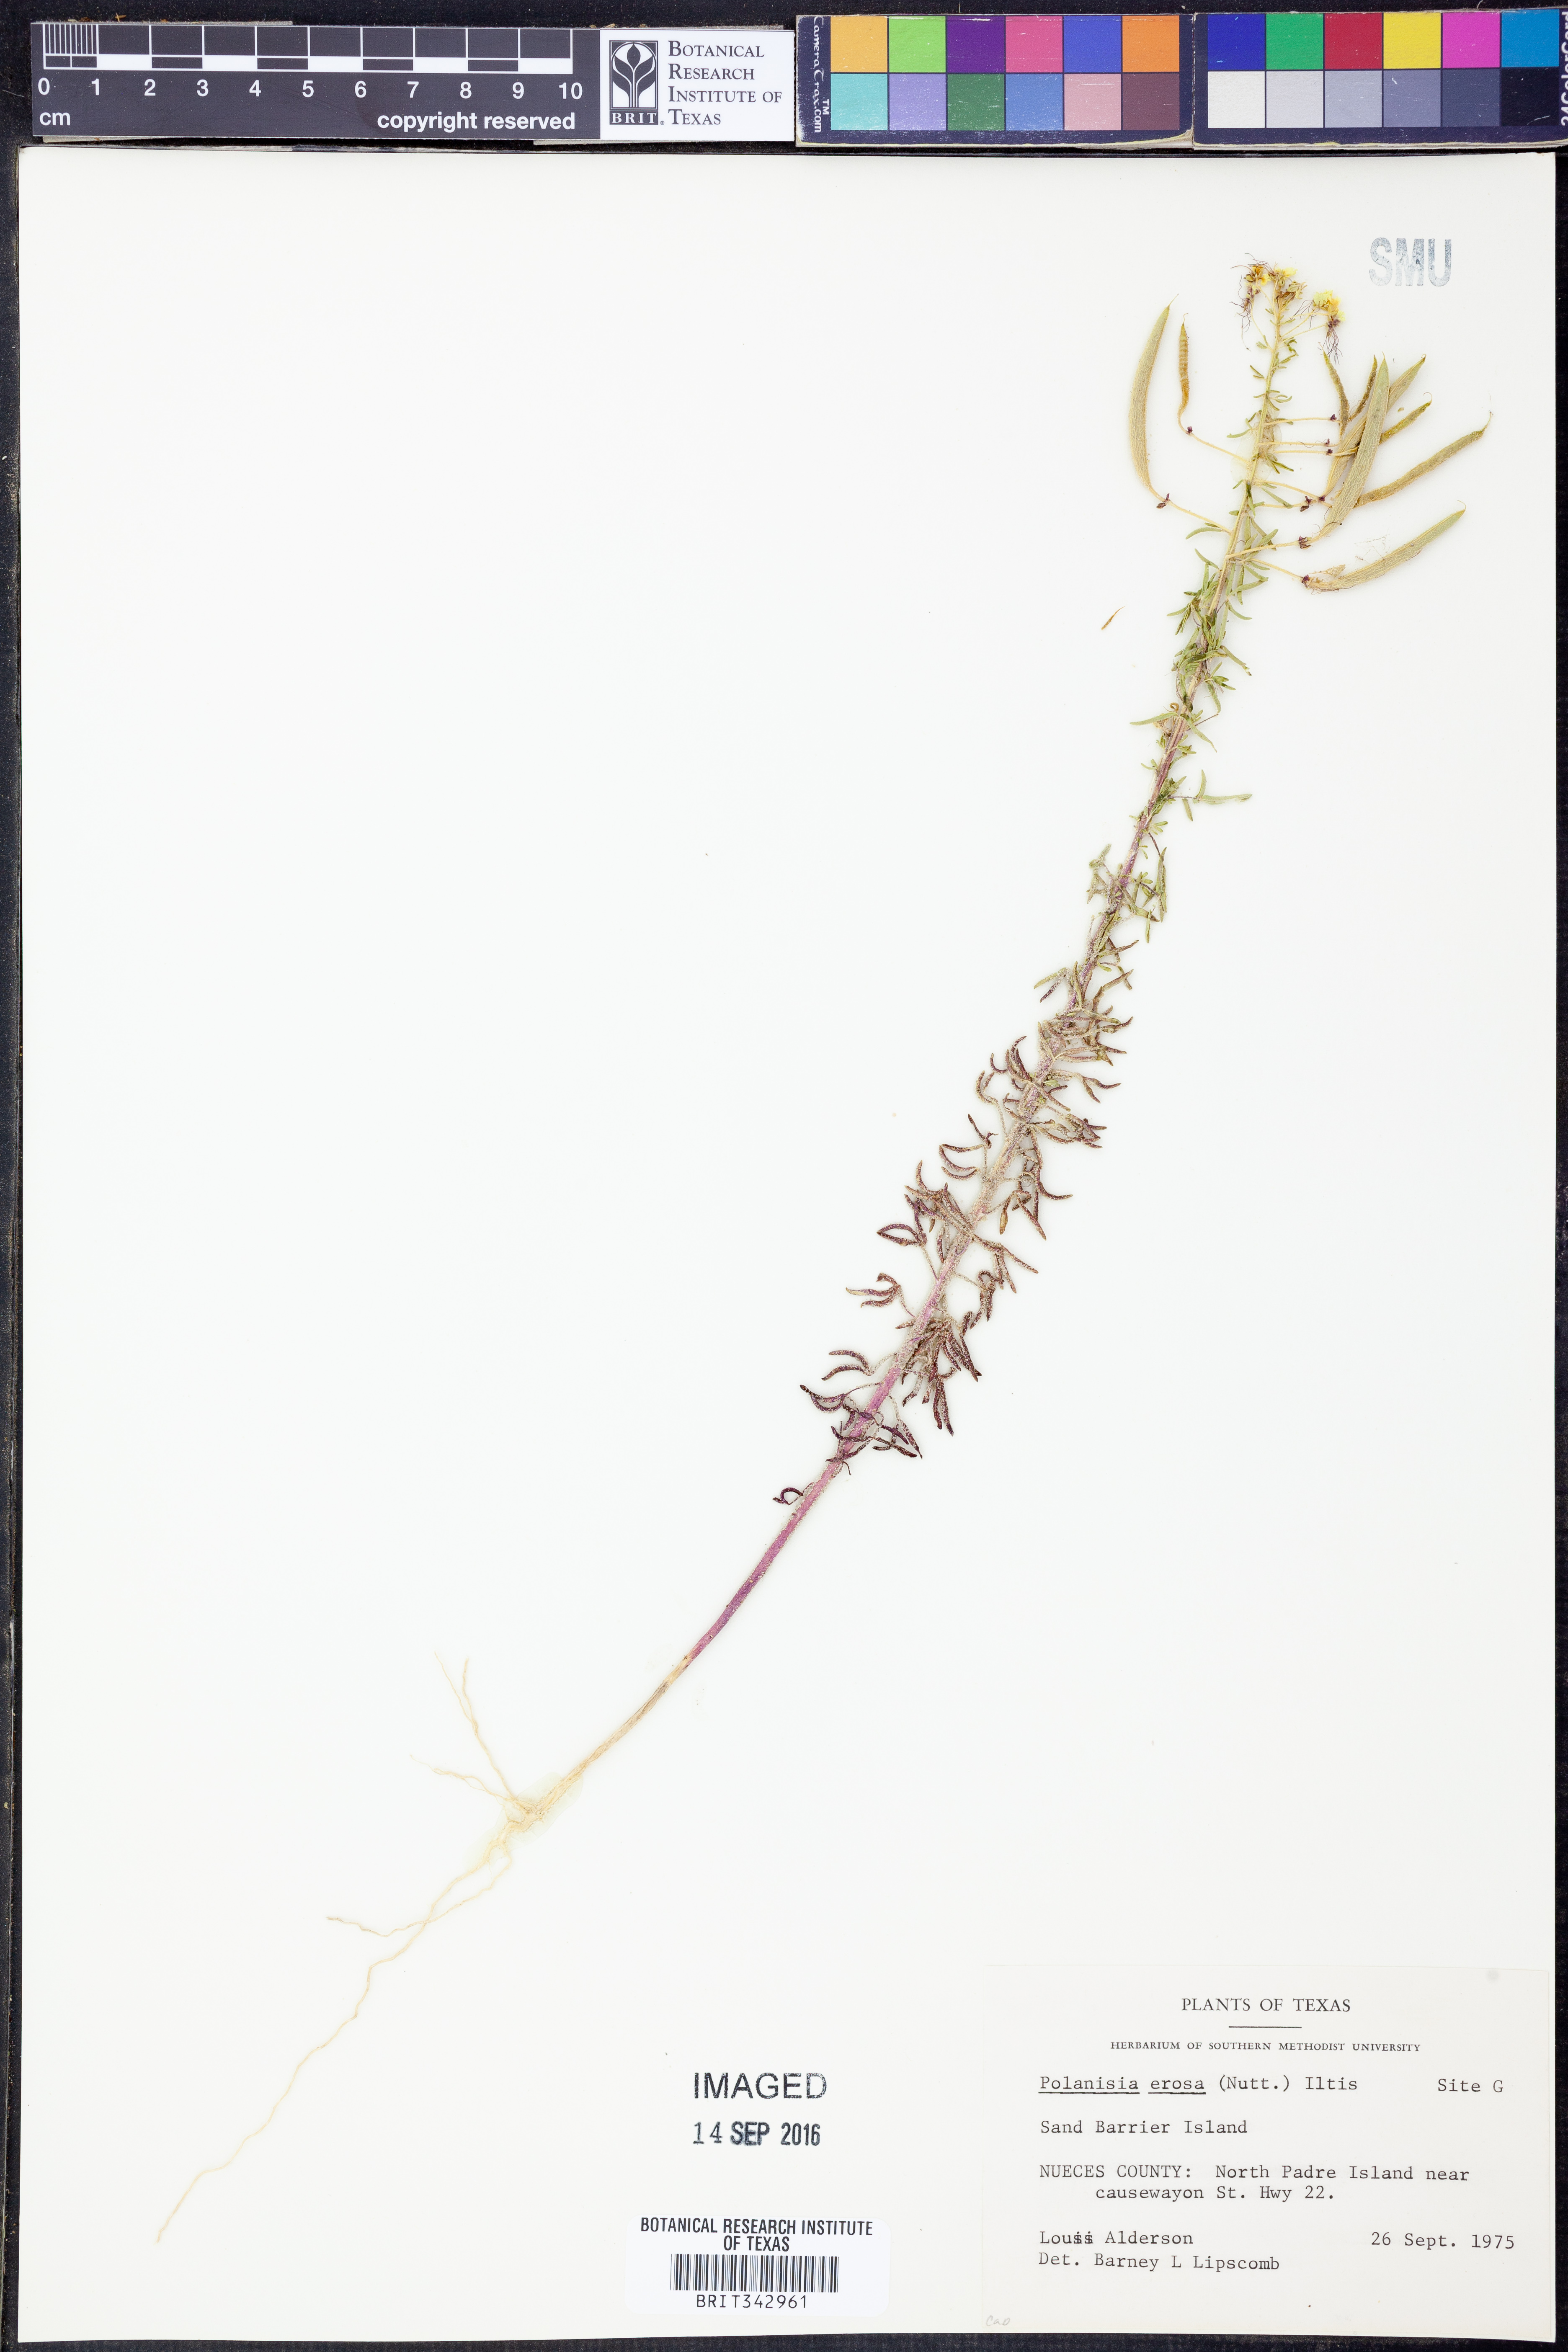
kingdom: Plantae
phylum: Tracheophyta
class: Magnoliopsida
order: Brassicales
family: Cleomaceae
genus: Polanisia
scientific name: Polanisia erosa
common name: Large clammyweed
